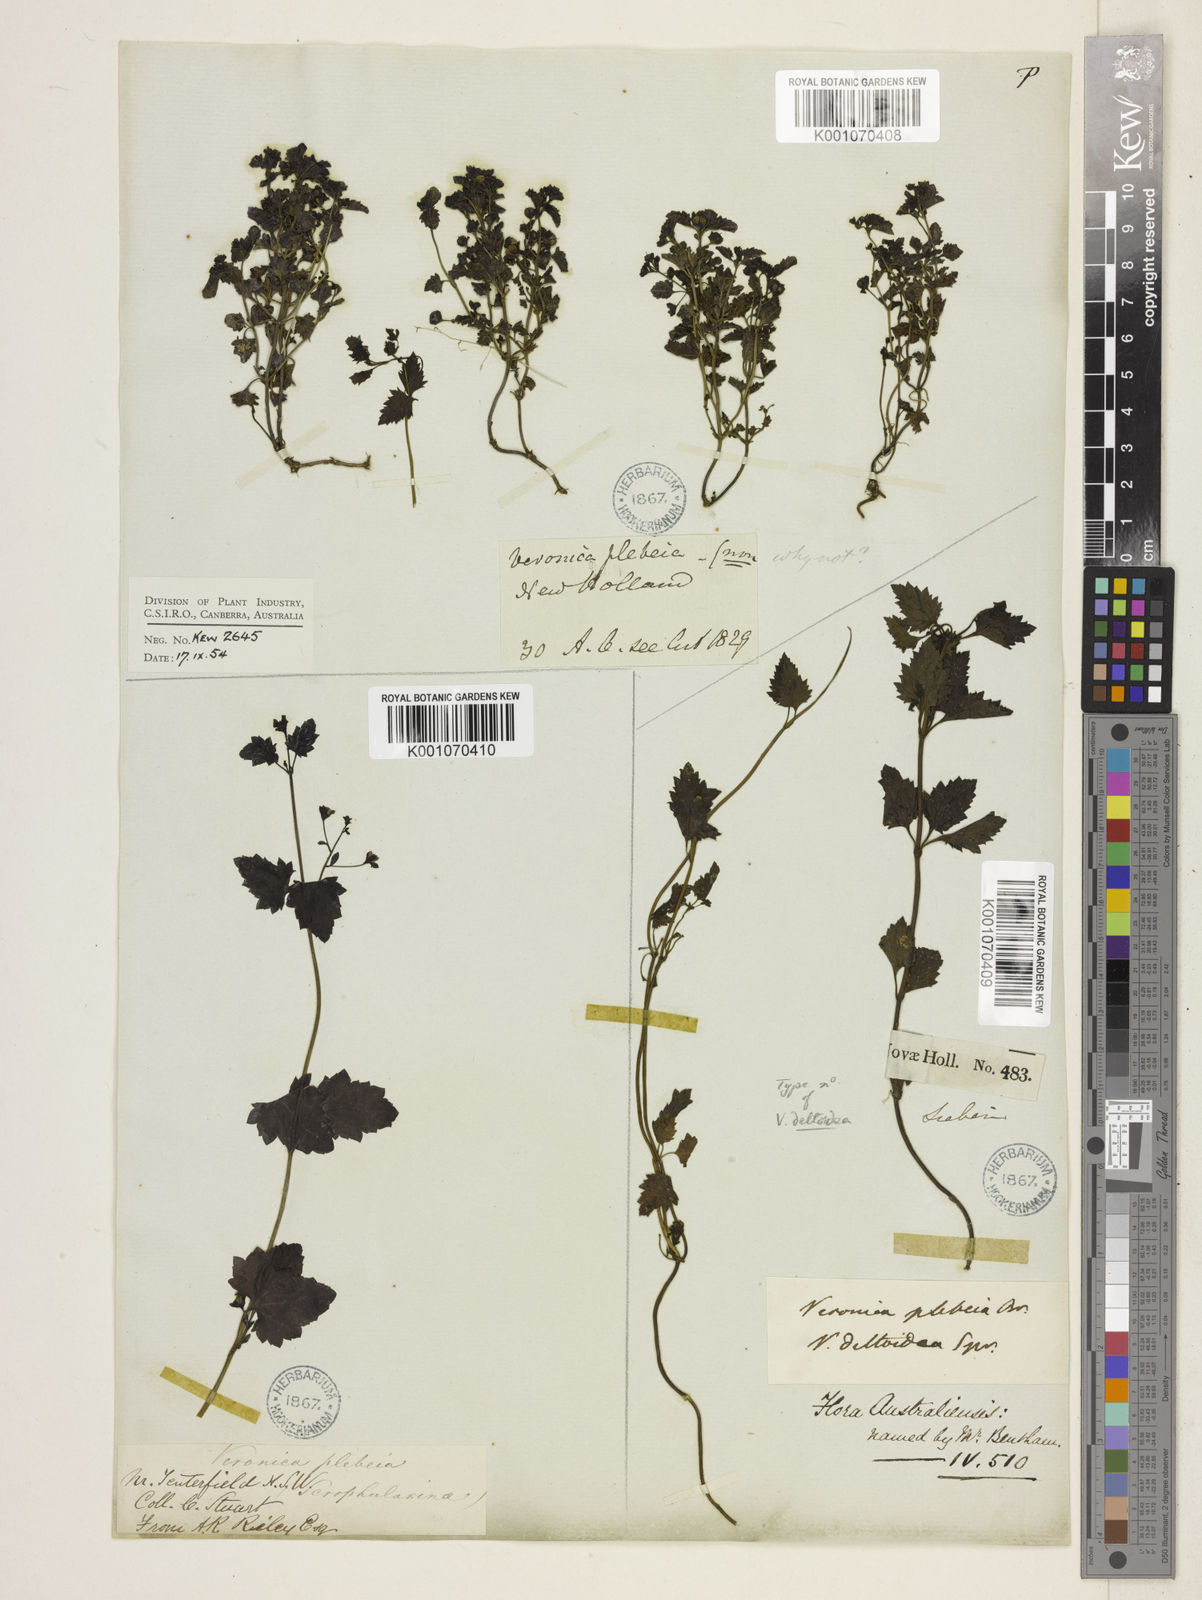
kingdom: Plantae
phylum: Tracheophyta
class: Magnoliopsida
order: Lamiales
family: Plantaginaceae
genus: Veronica
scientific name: Veronica plebeia
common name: Speedwell
